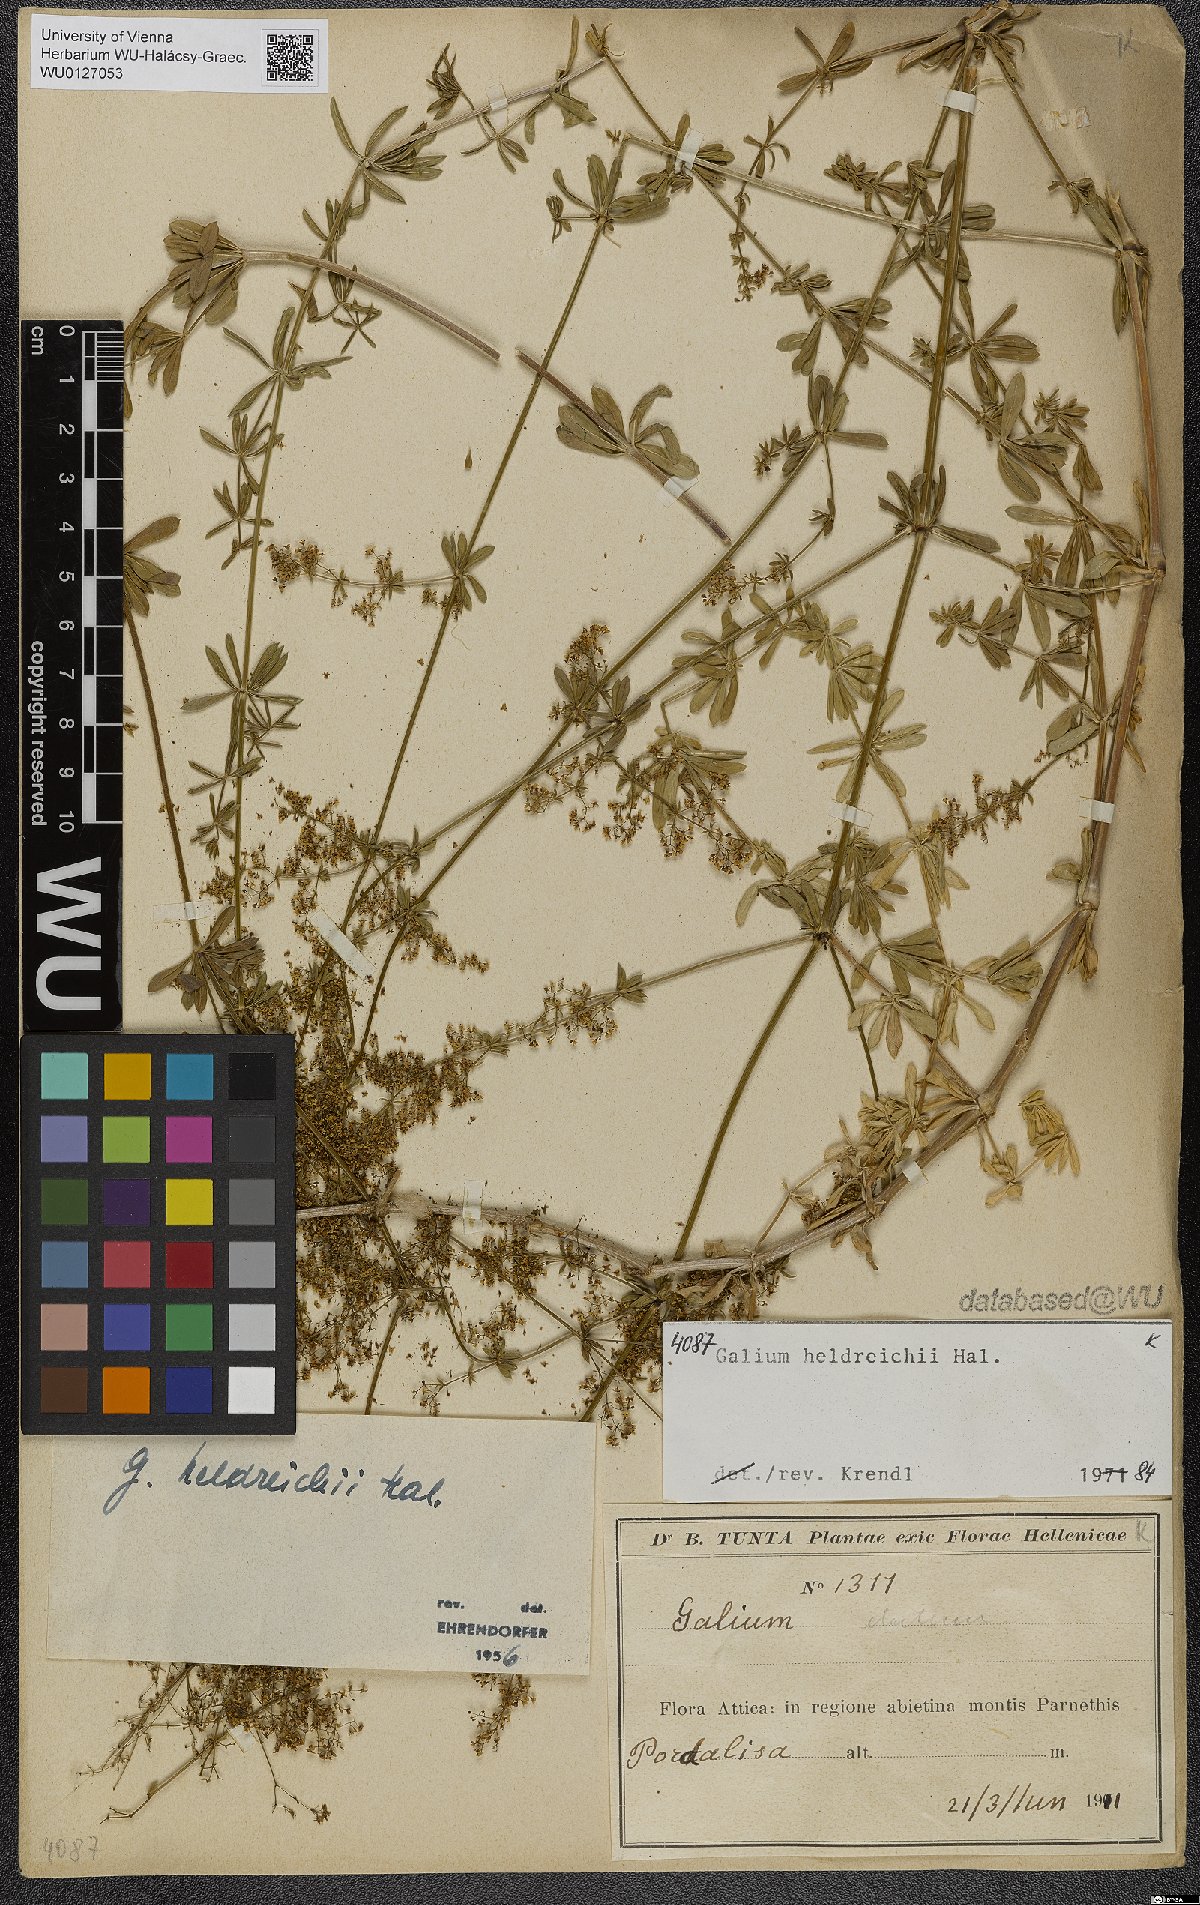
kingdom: Plantae
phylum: Tracheophyta
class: Magnoliopsida
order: Gentianales
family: Rubiaceae
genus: Galium
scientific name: Galium heldreichii
